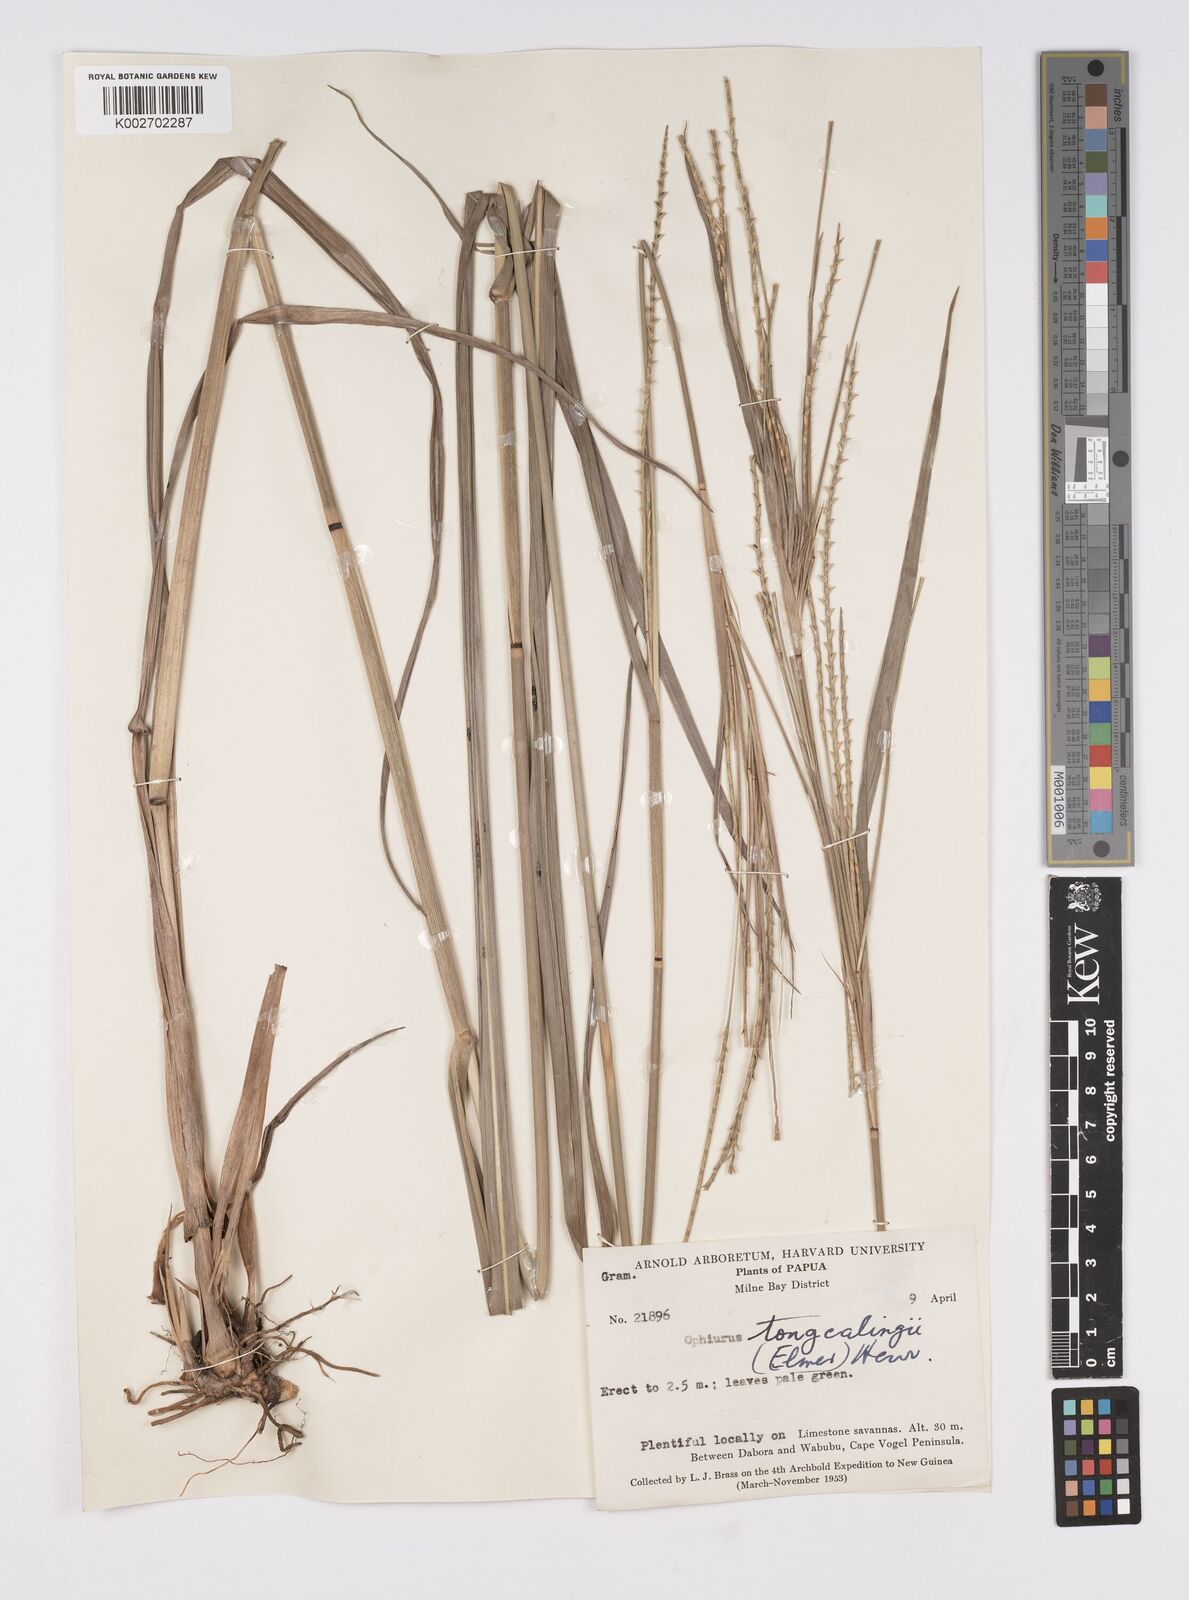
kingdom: Plantae
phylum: Tracheophyta
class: Liliopsida
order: Poales
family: Poaceae
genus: Ophiuros
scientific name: Ophiuros exaltatus
